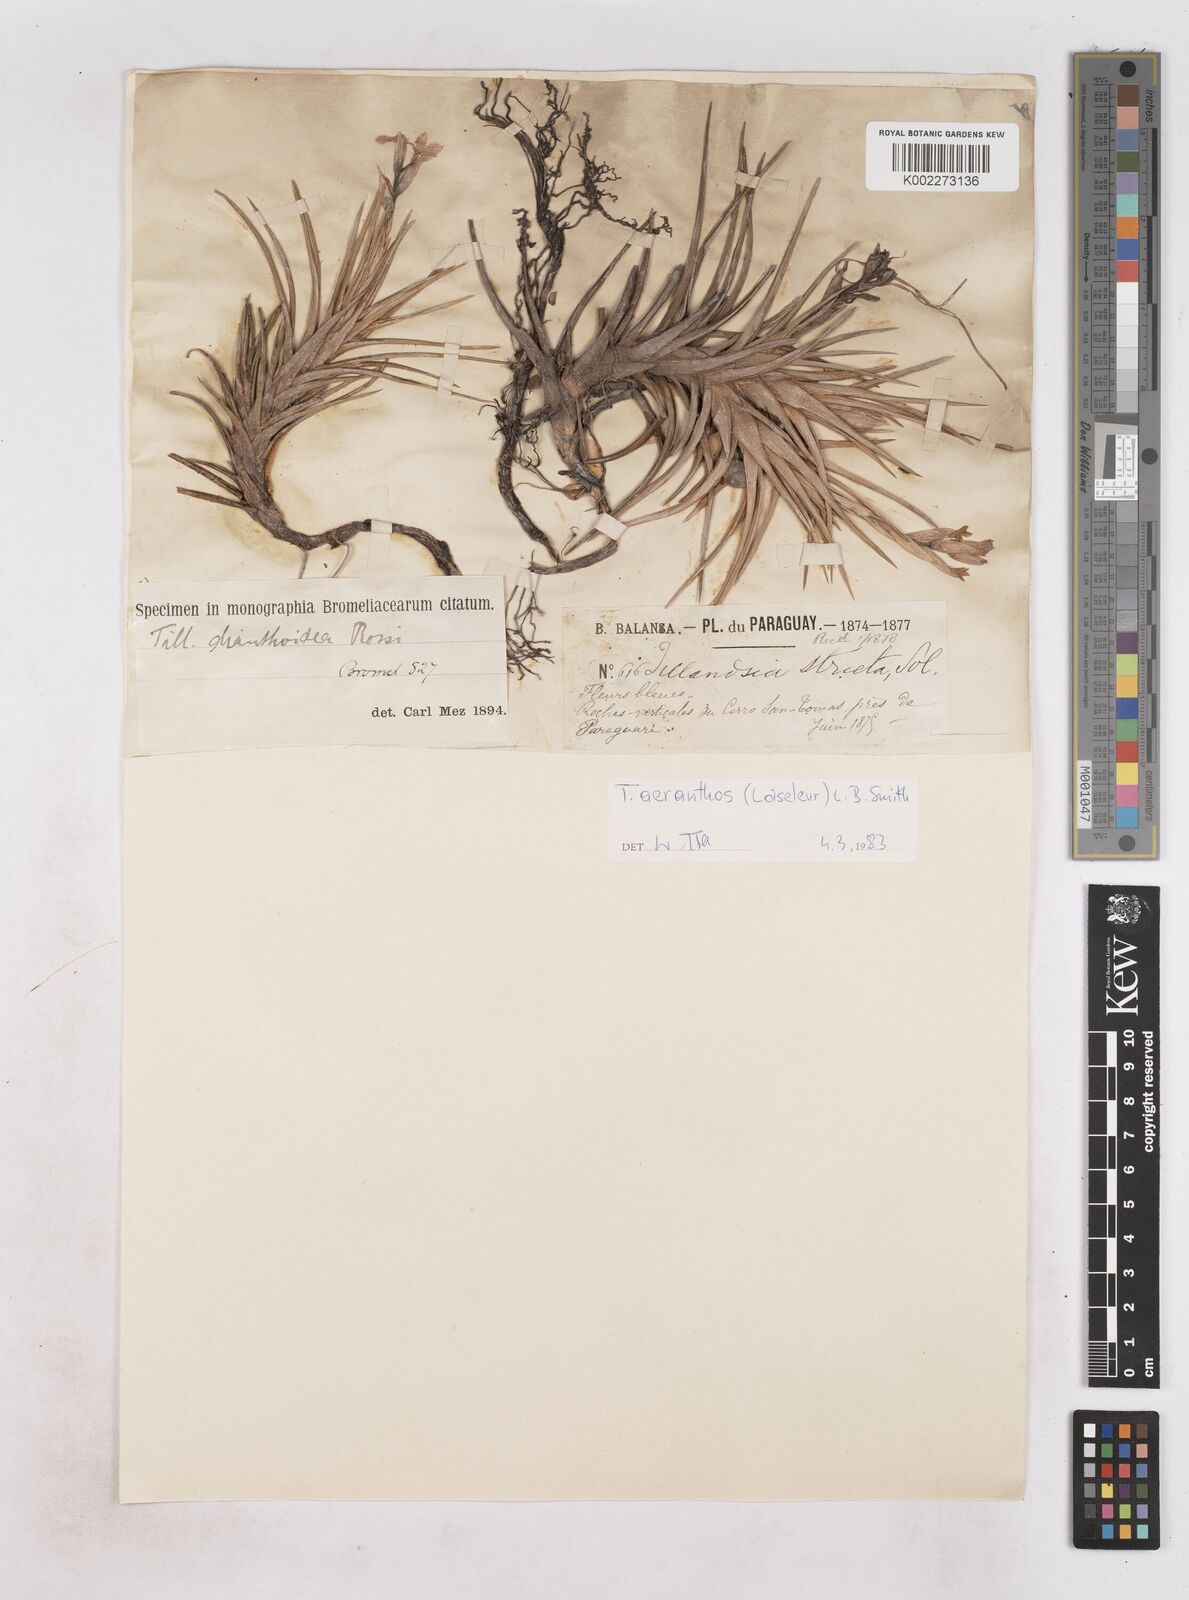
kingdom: Plantae
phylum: Tracheophyta
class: Liliopsida
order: Poales
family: Bromeliaceae
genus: Tillandsia
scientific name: Tillandsia aeranthos
